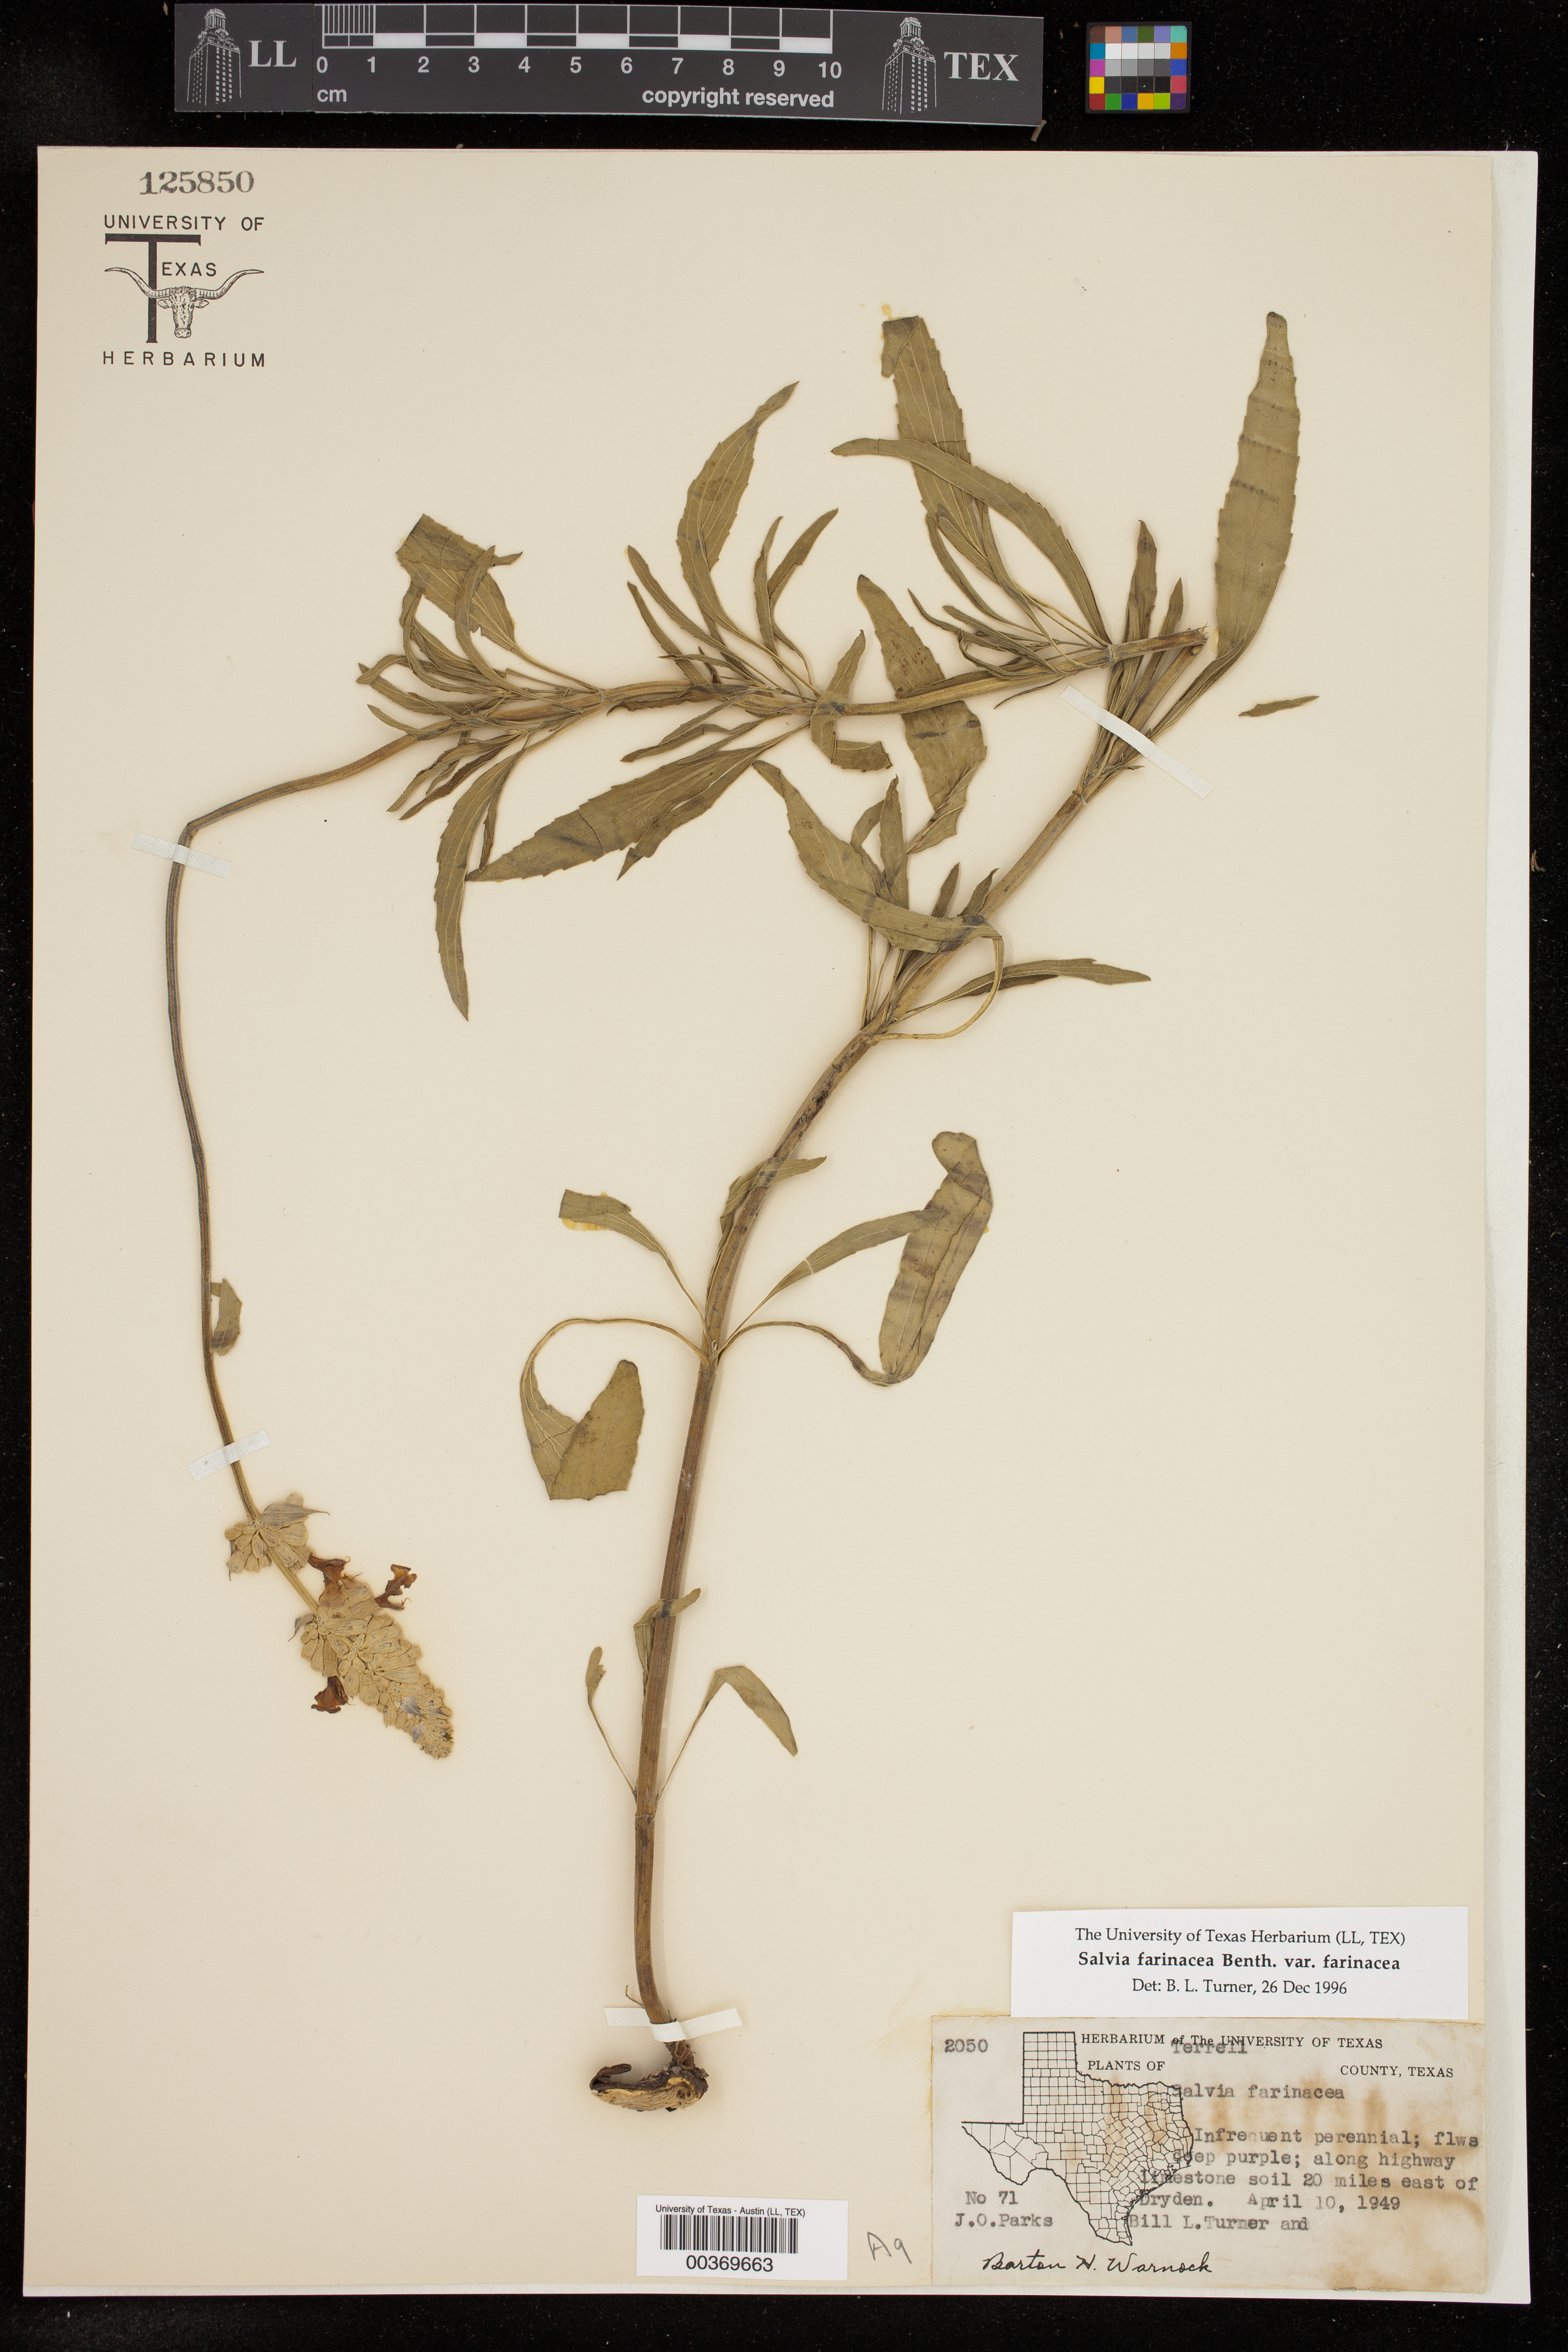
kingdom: Plantae
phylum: Tracheophyta
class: Magnoliopsida
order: Lamiales
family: Lamiaceae
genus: Salvia
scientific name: Salvia farinacea
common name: Mealy sage
